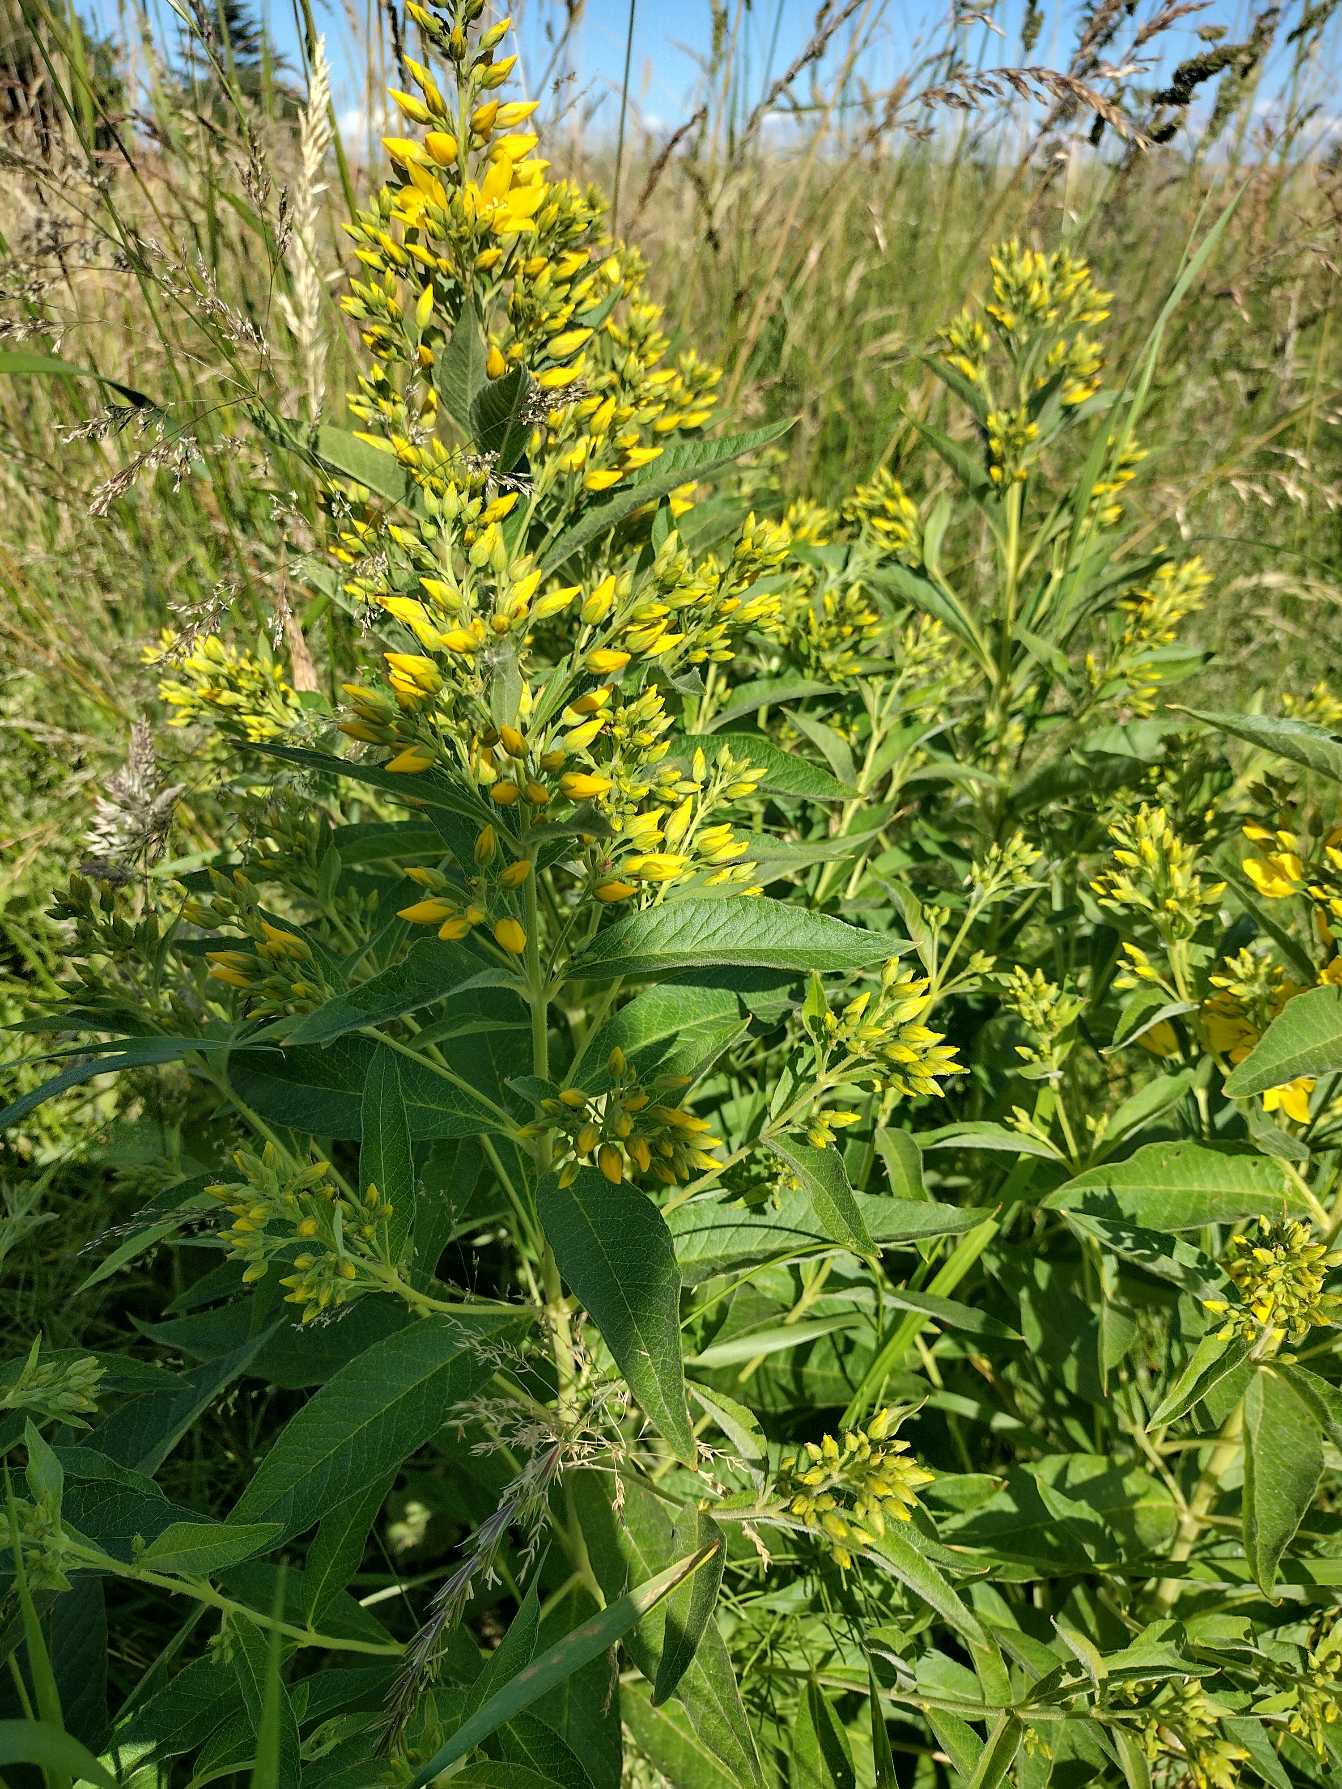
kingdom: Plantae
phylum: Tracheophyta
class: Magnoliopsida
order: Ericales
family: Primulaceae
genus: Lysimachia
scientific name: Lysimachia vulgaris
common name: Almindelig fredløs
